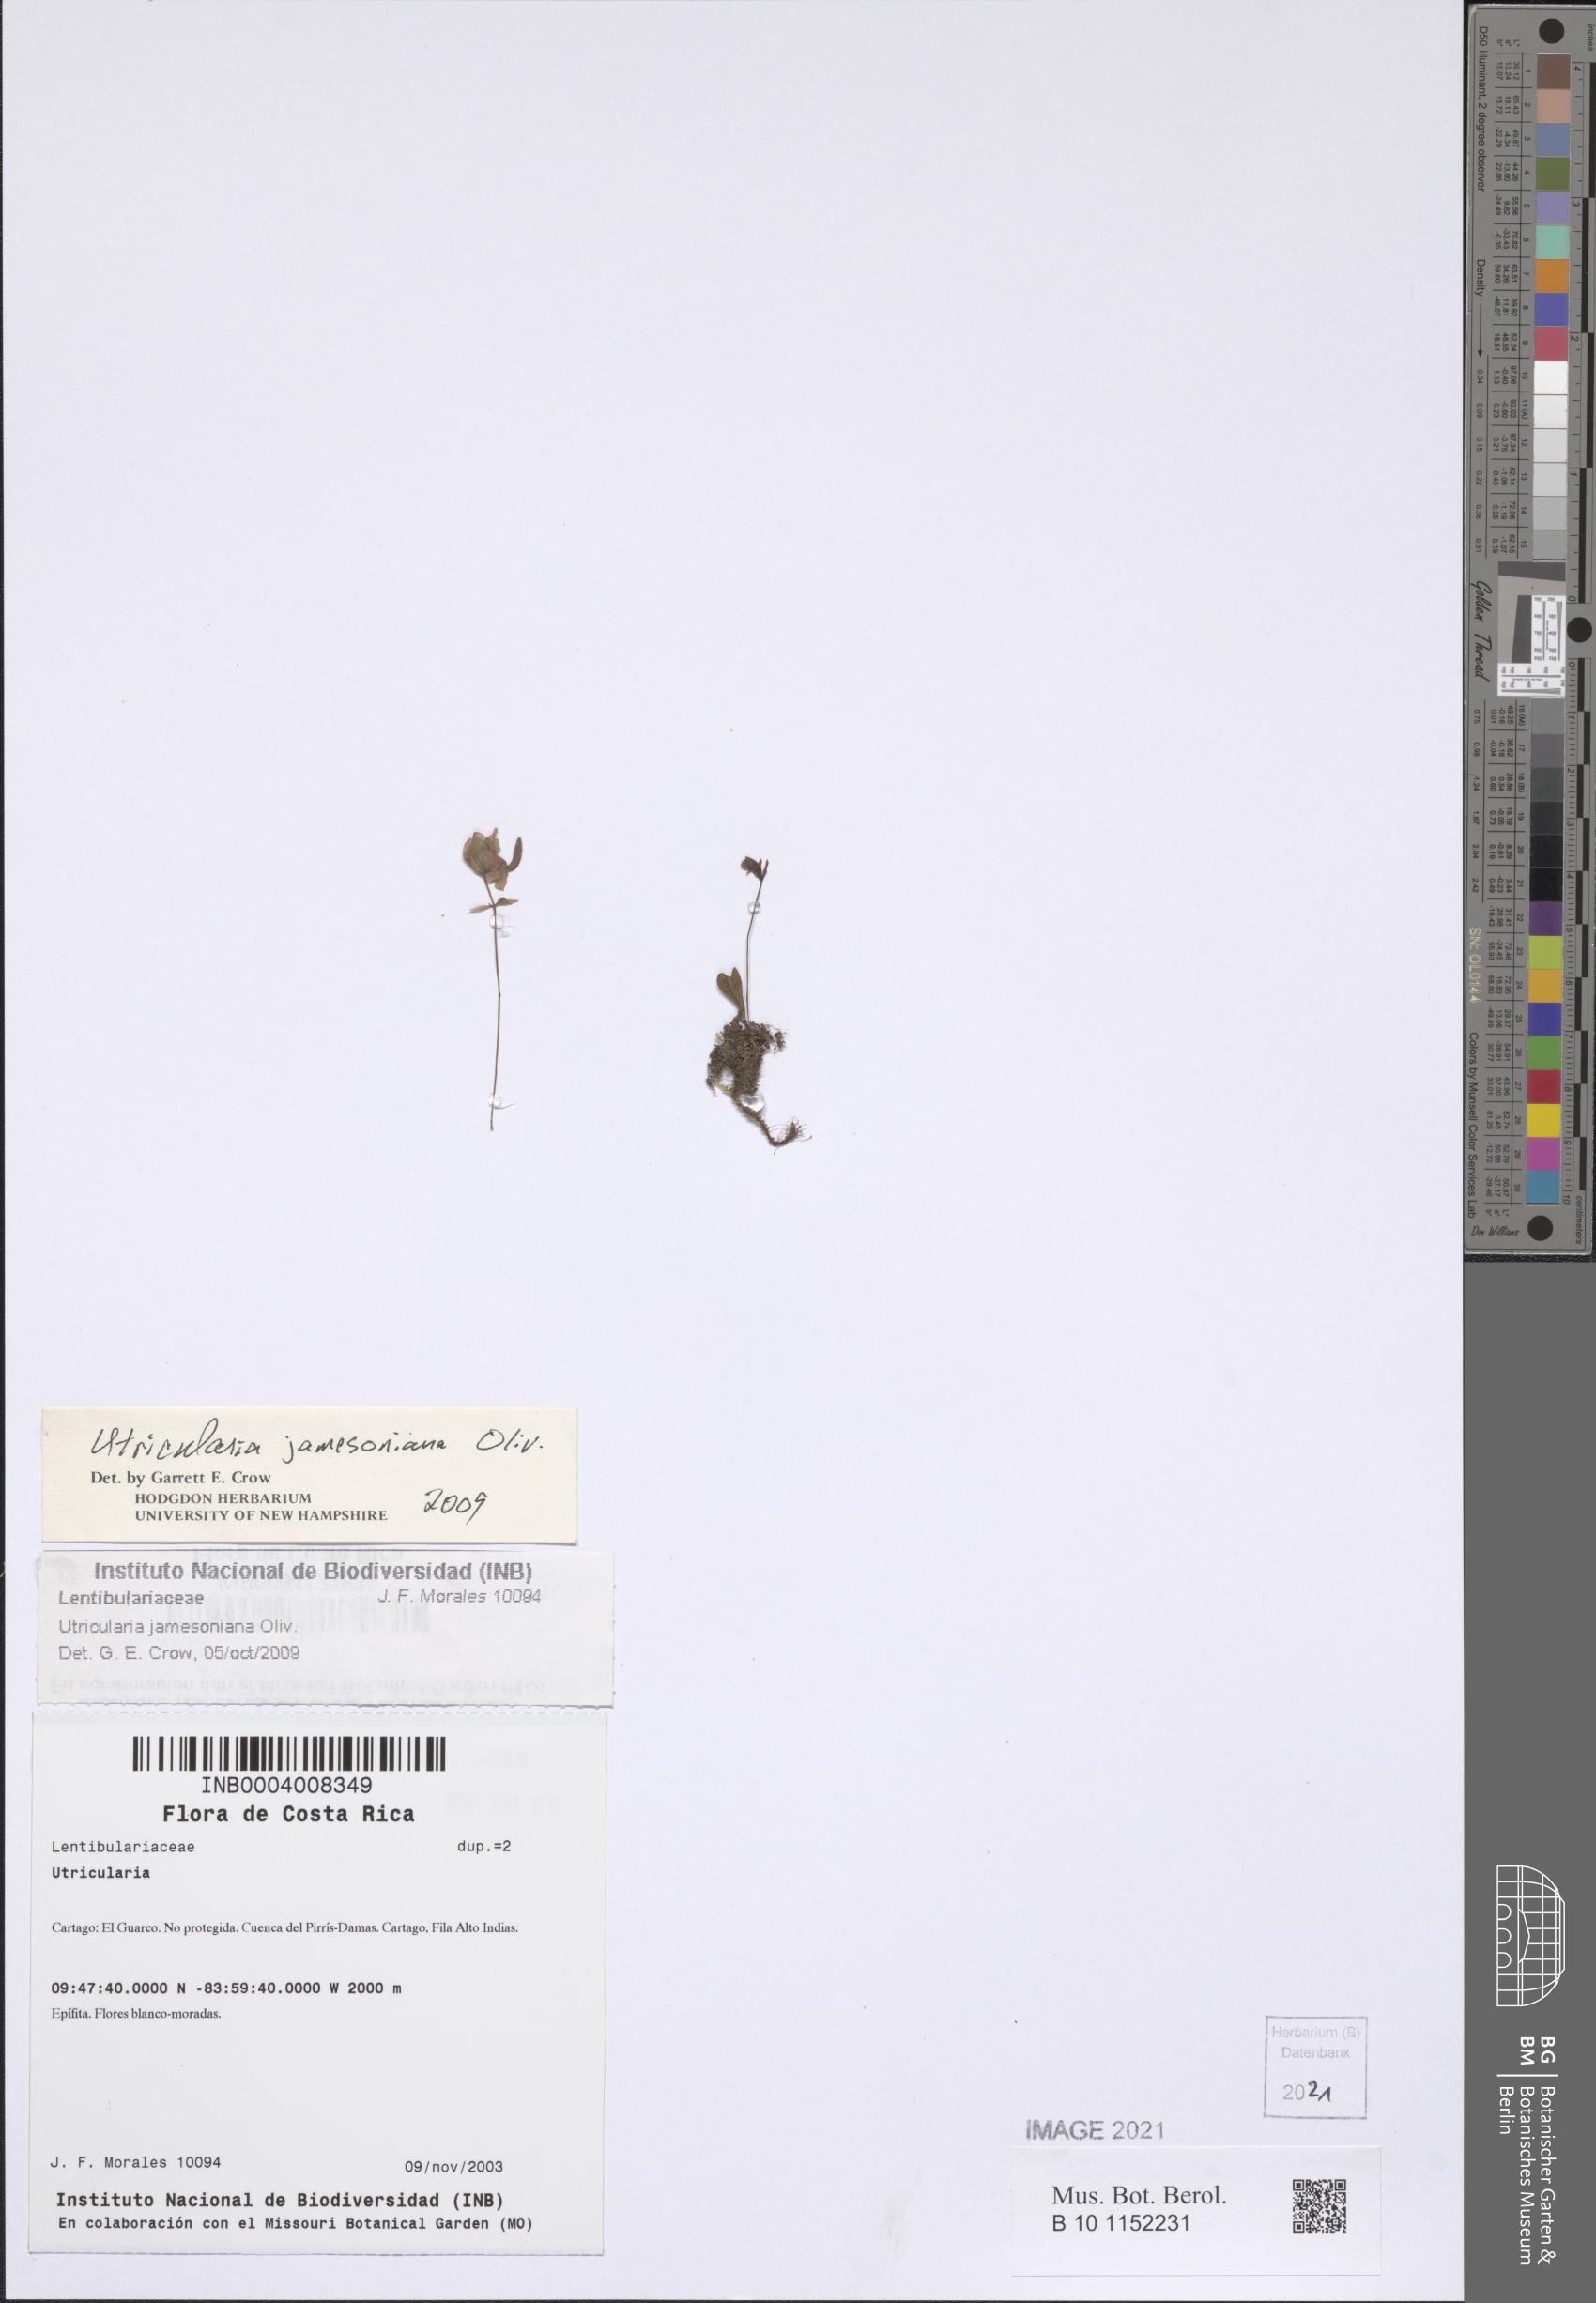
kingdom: Plantae
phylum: Tracheophyta
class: Magnoliopsida
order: Lamiales
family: Lentibulariaceae
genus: Utricularia
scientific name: Utricularia jamesoniana
